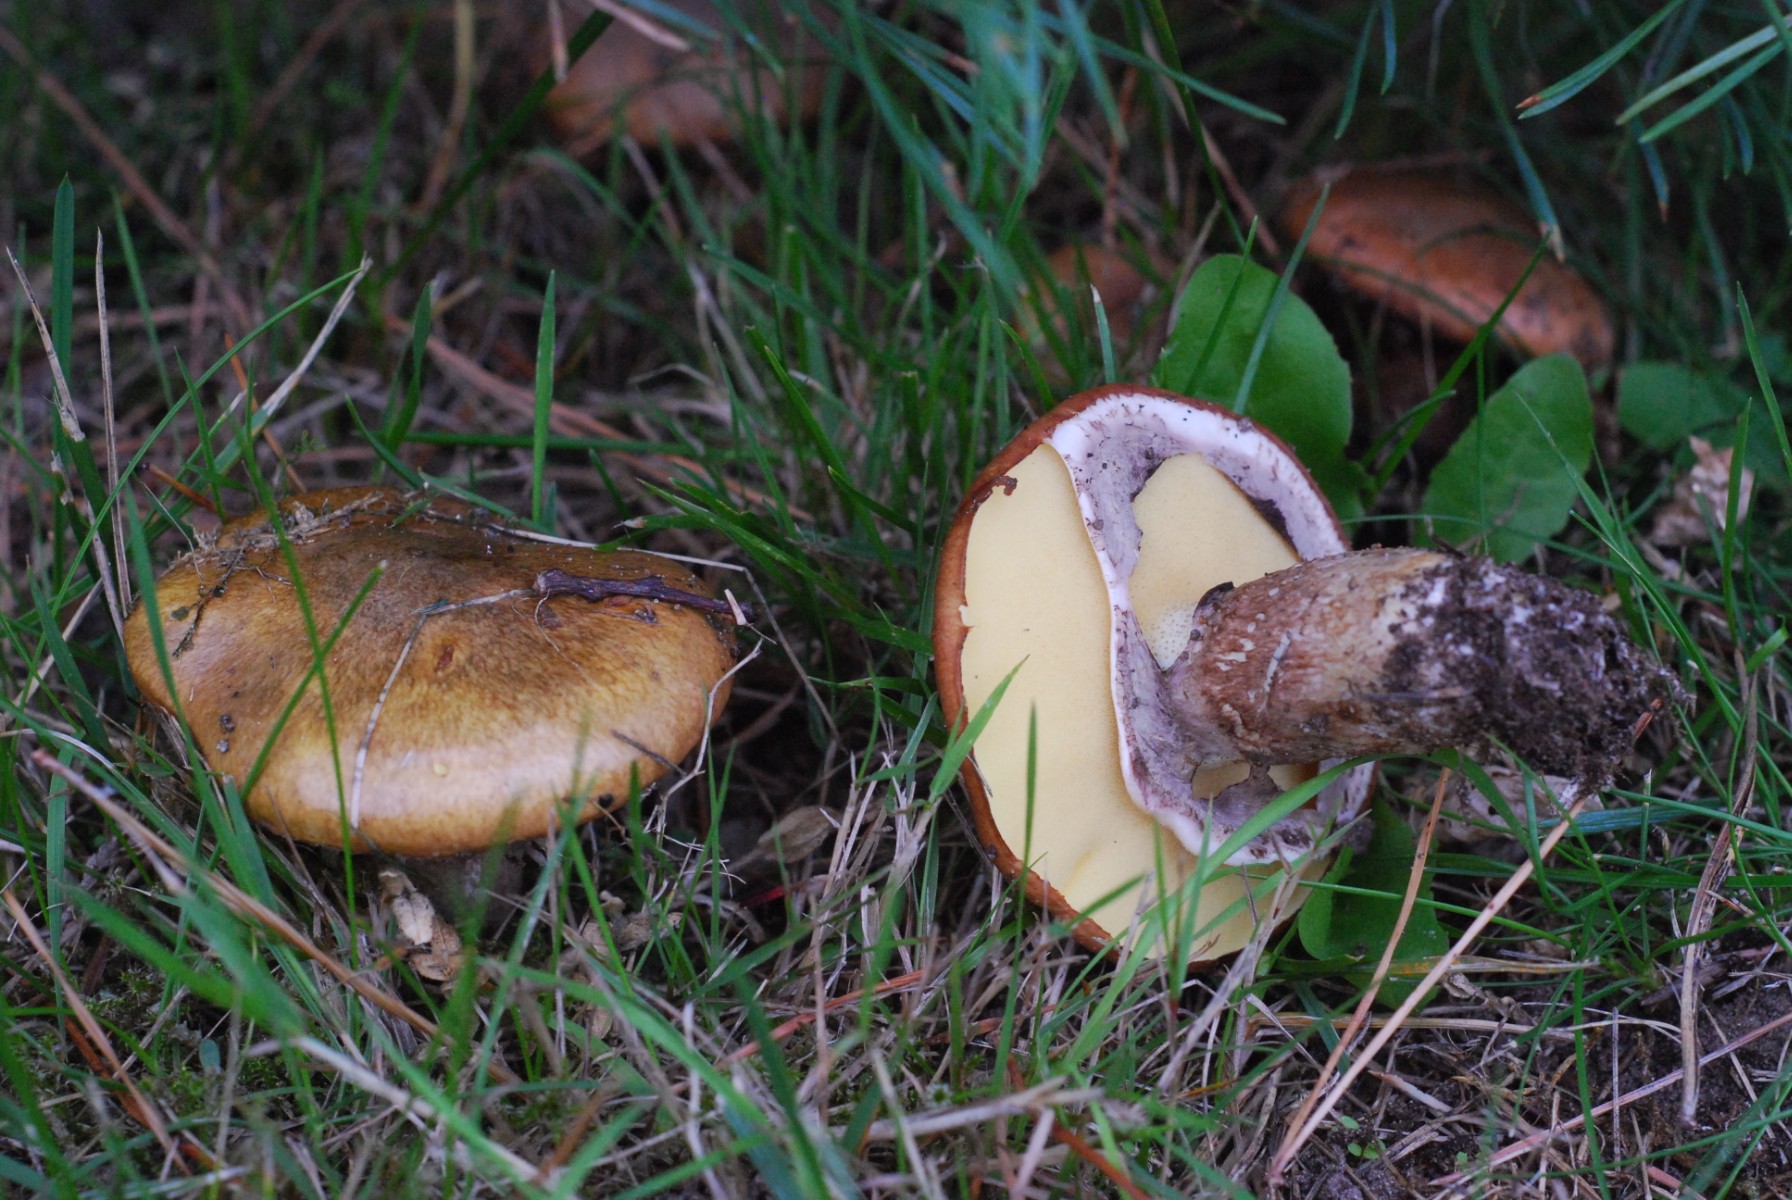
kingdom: Fungi
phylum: Basidiomycota
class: Agaricomycetes
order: Boletales
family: Suillaceae
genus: Suillus
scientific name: Suillus luteus
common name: brungul slimrørhat
